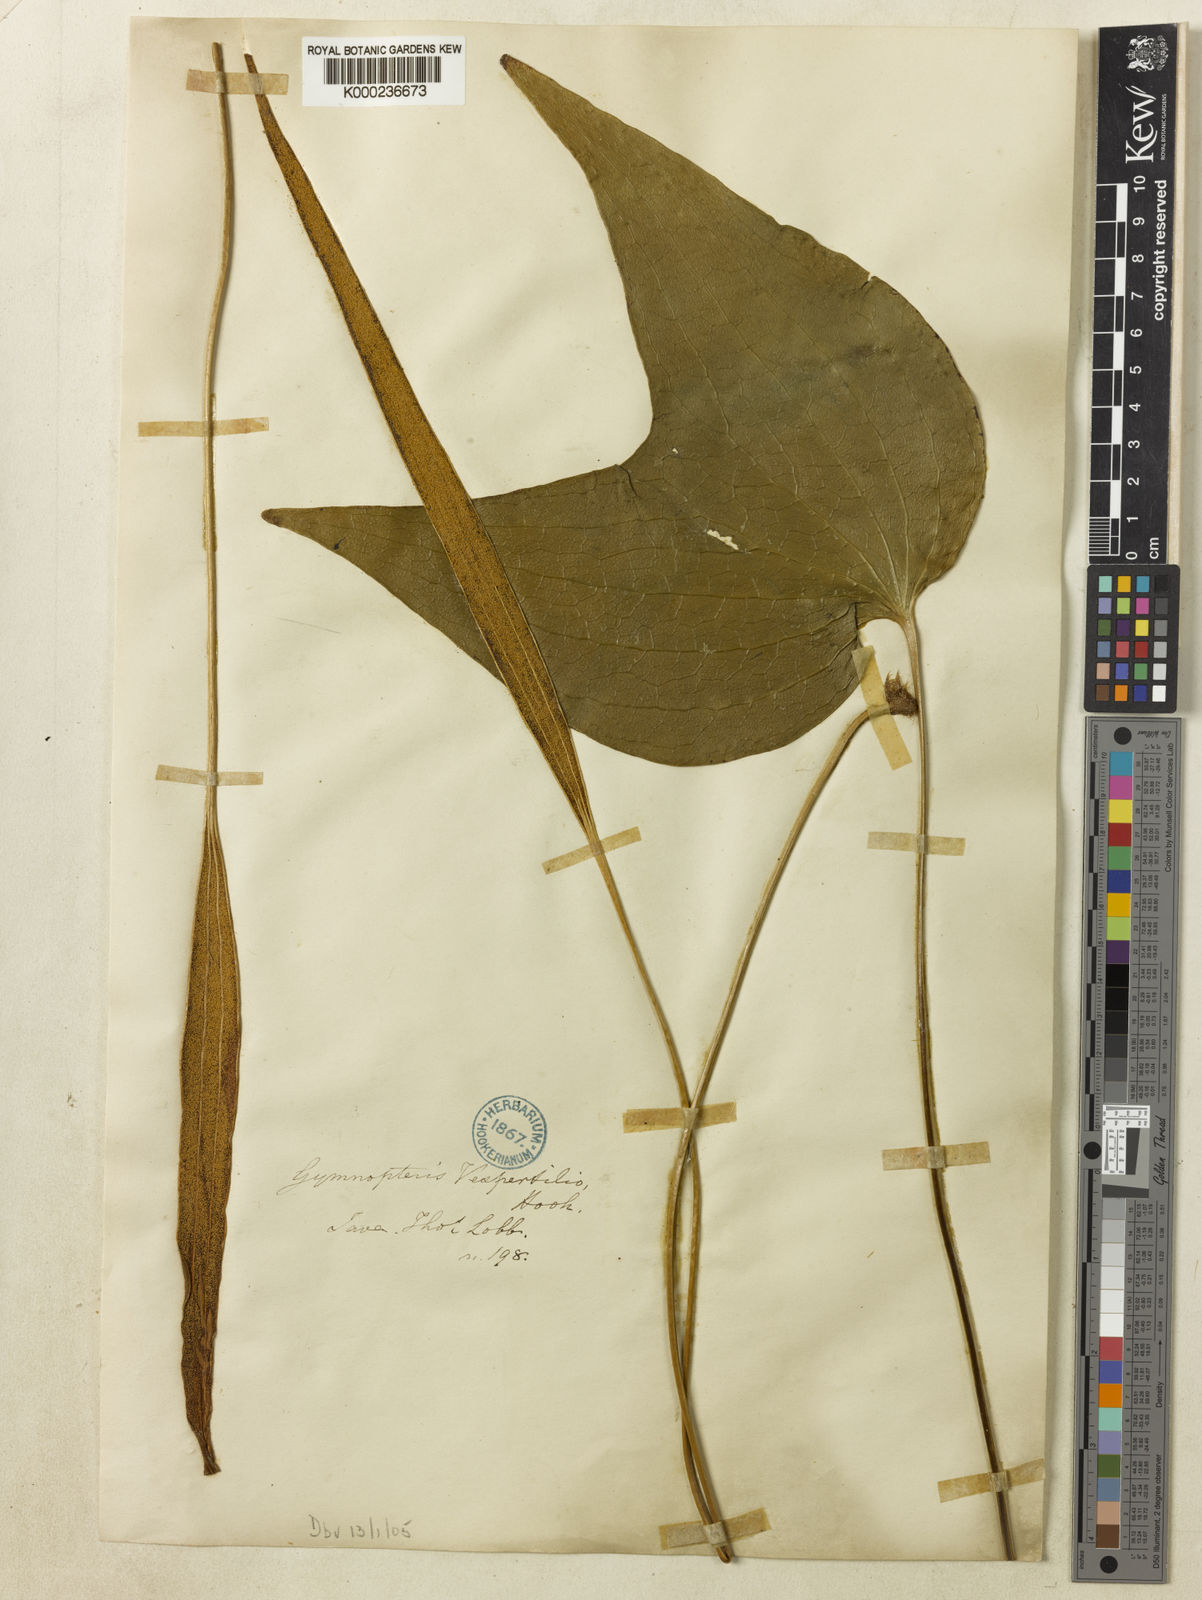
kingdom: Plantae
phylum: Tracheophyta
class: Polypodiopsida
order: Gleicheniales
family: Dipteridaceae
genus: Cheiropleuria
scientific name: Cheiropleuria bicuspis
